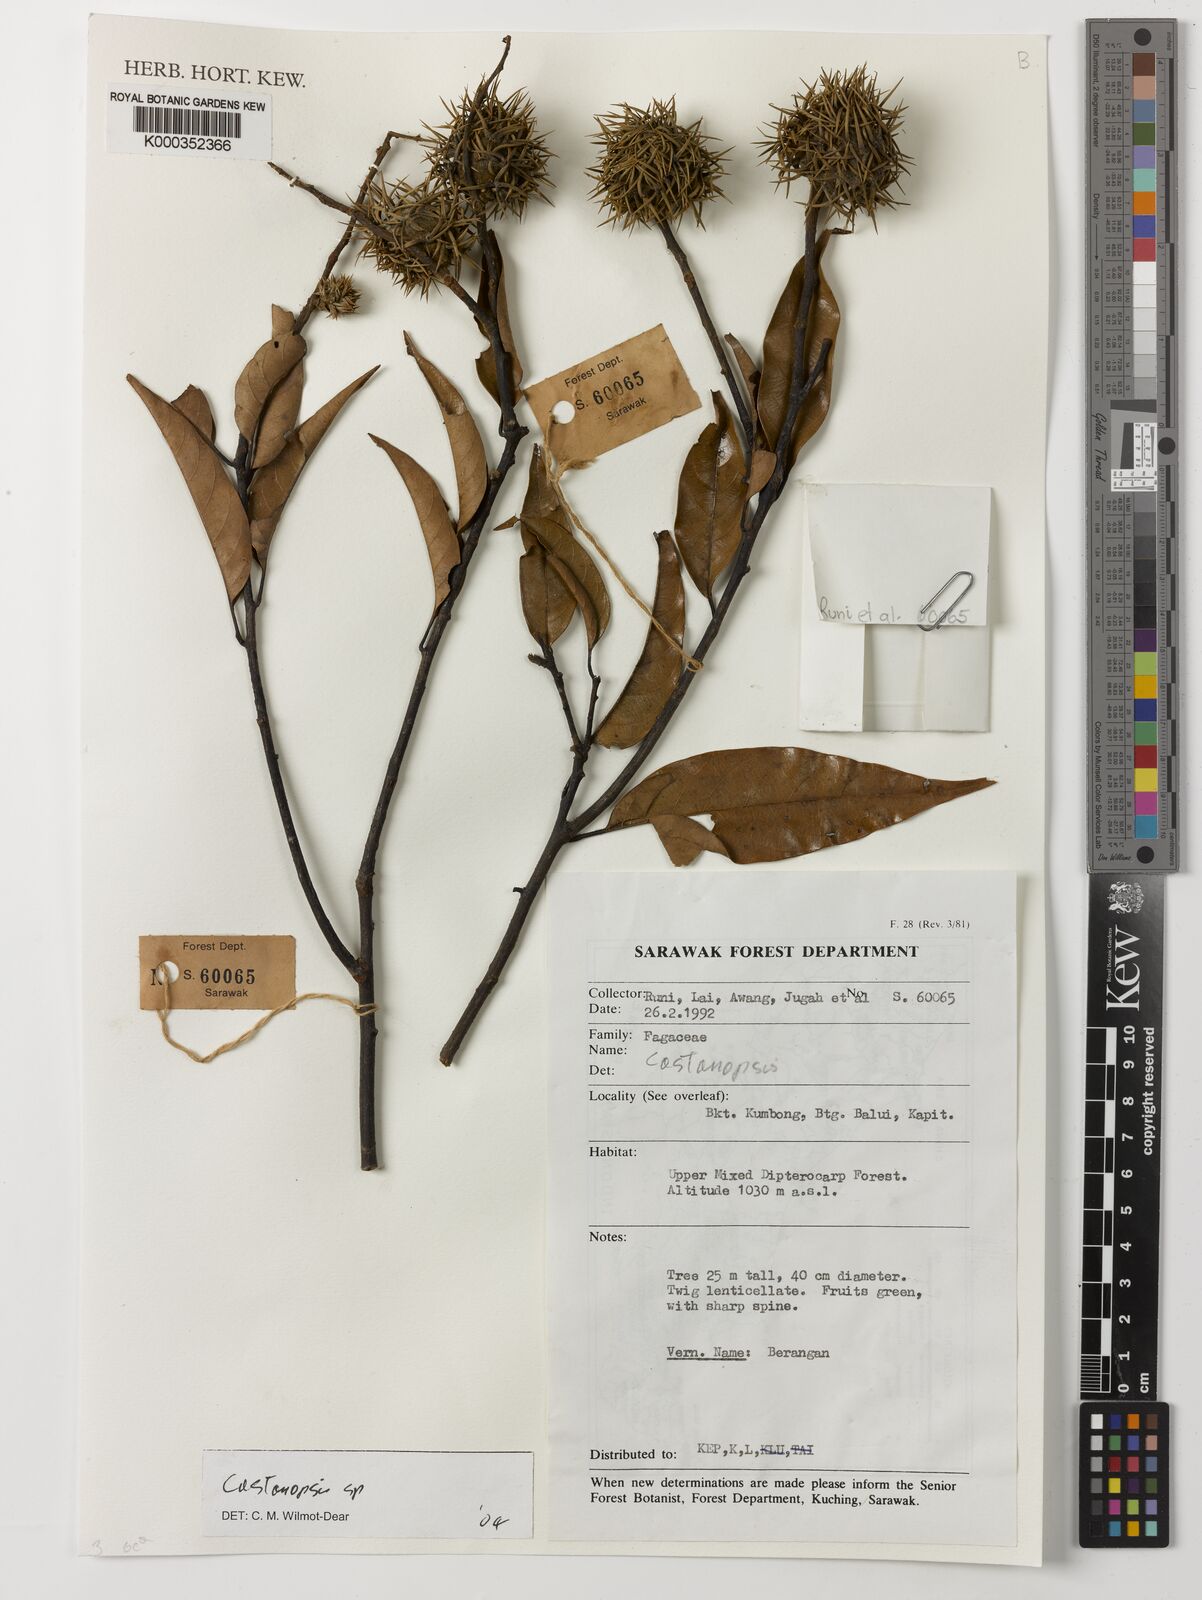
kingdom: Plantae
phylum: Tracheophyta
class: Magnoliopsida
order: Fagales
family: Fagaceae
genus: Castanopsis
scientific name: Castanopsis
